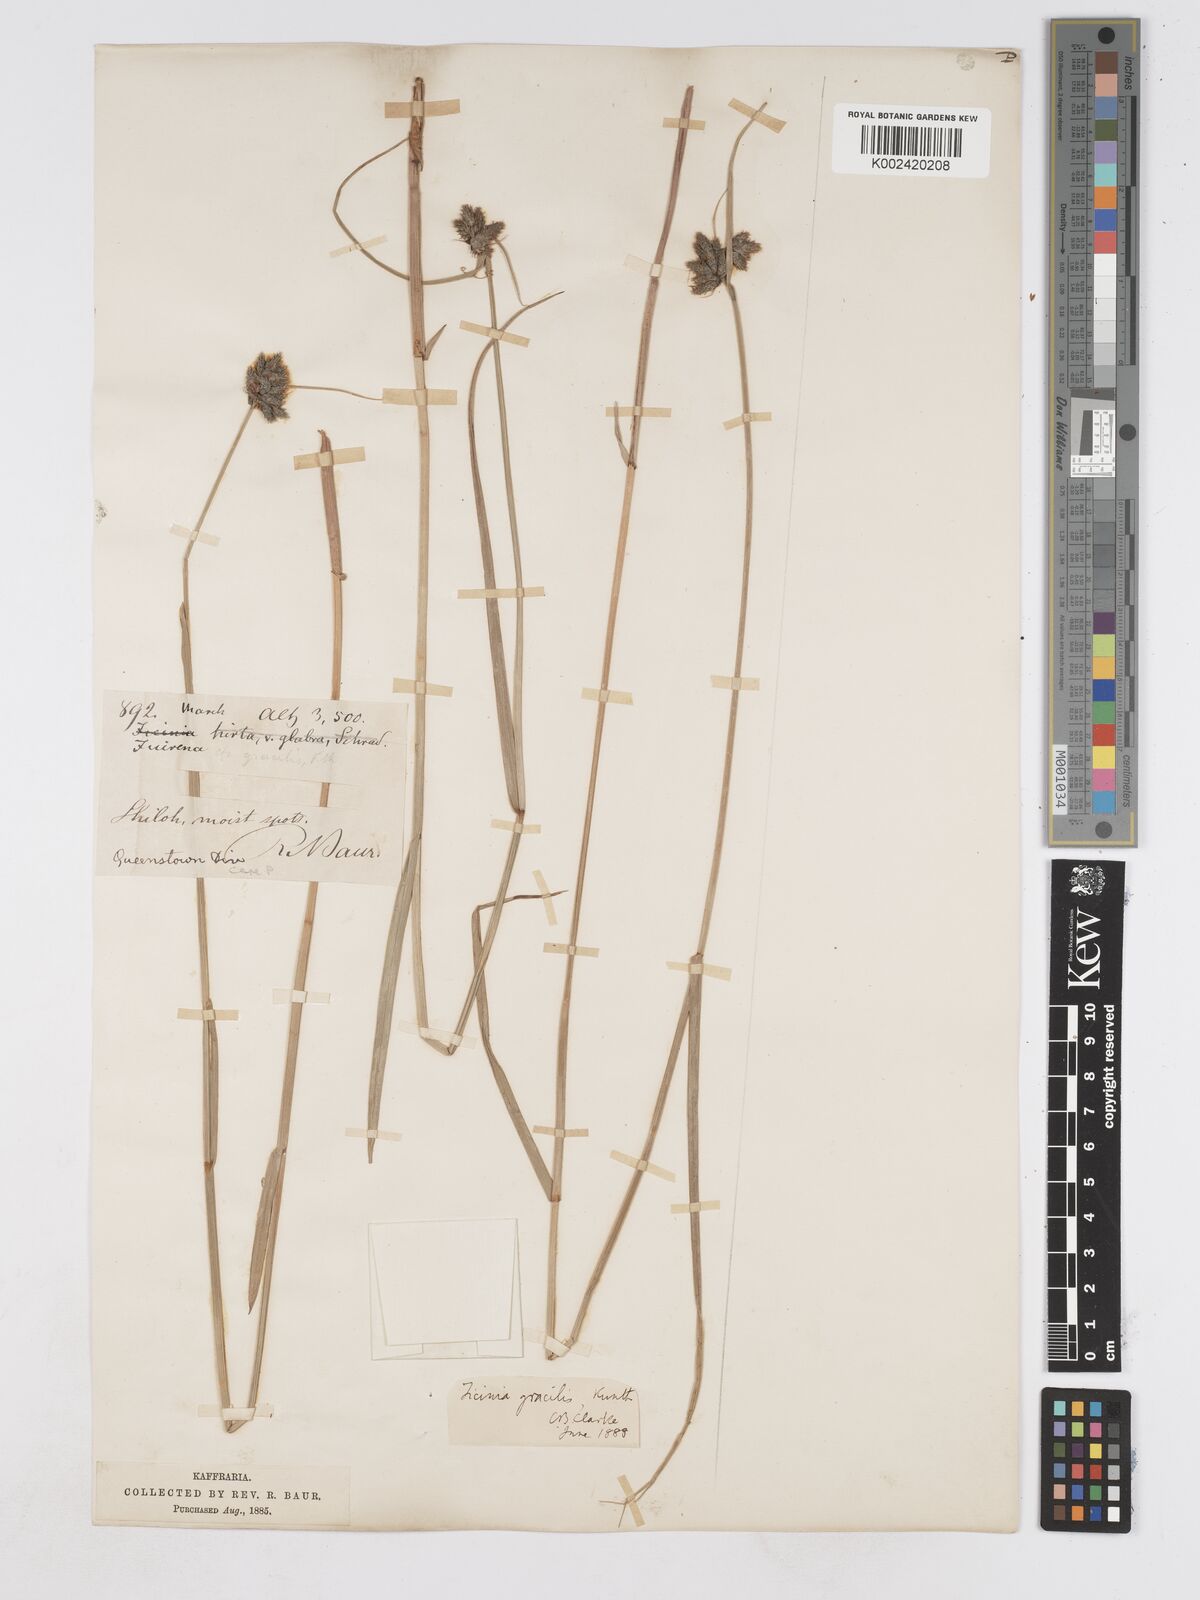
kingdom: Plantae
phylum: Tracheophyta
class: Liliopsida
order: Poales
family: Cyperaceae
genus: Fuirena
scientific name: Fuirena coerulescens
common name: Blue umbrella-sedge
